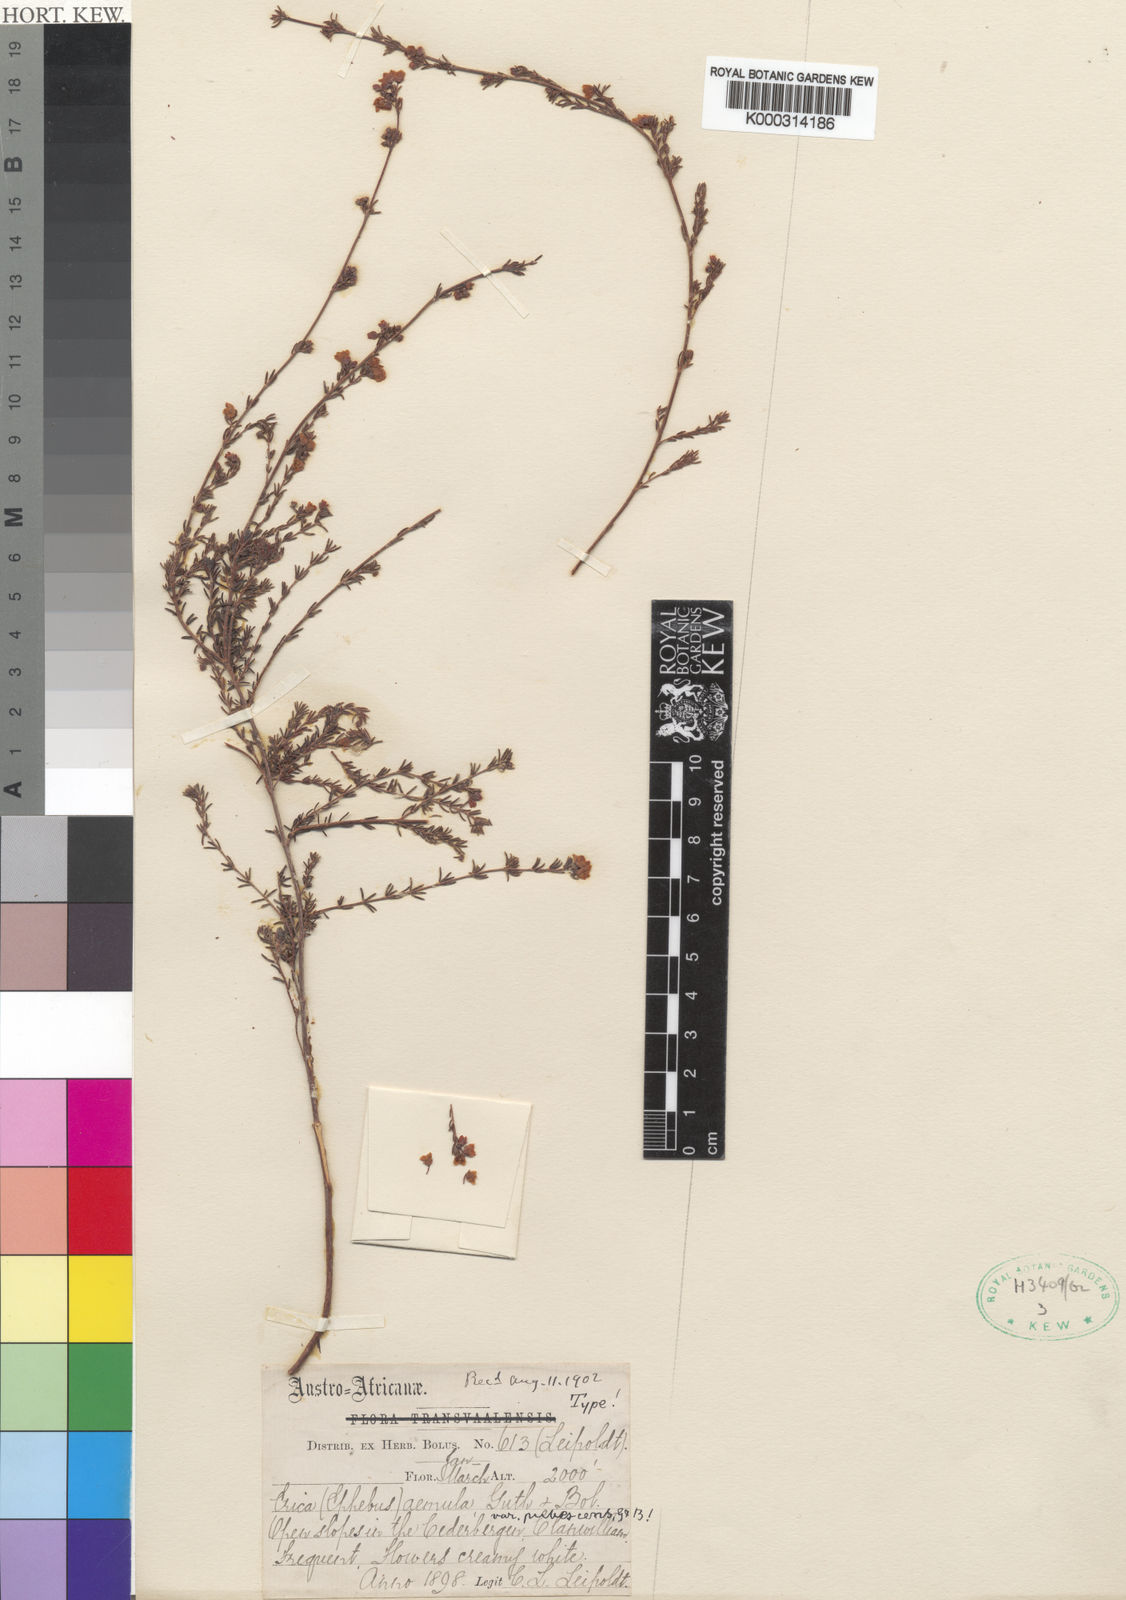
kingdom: Plantae
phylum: Tracheophyta
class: Magnoliopsida
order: Ericales
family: Ericaceae
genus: Erica
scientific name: Erica aemula
